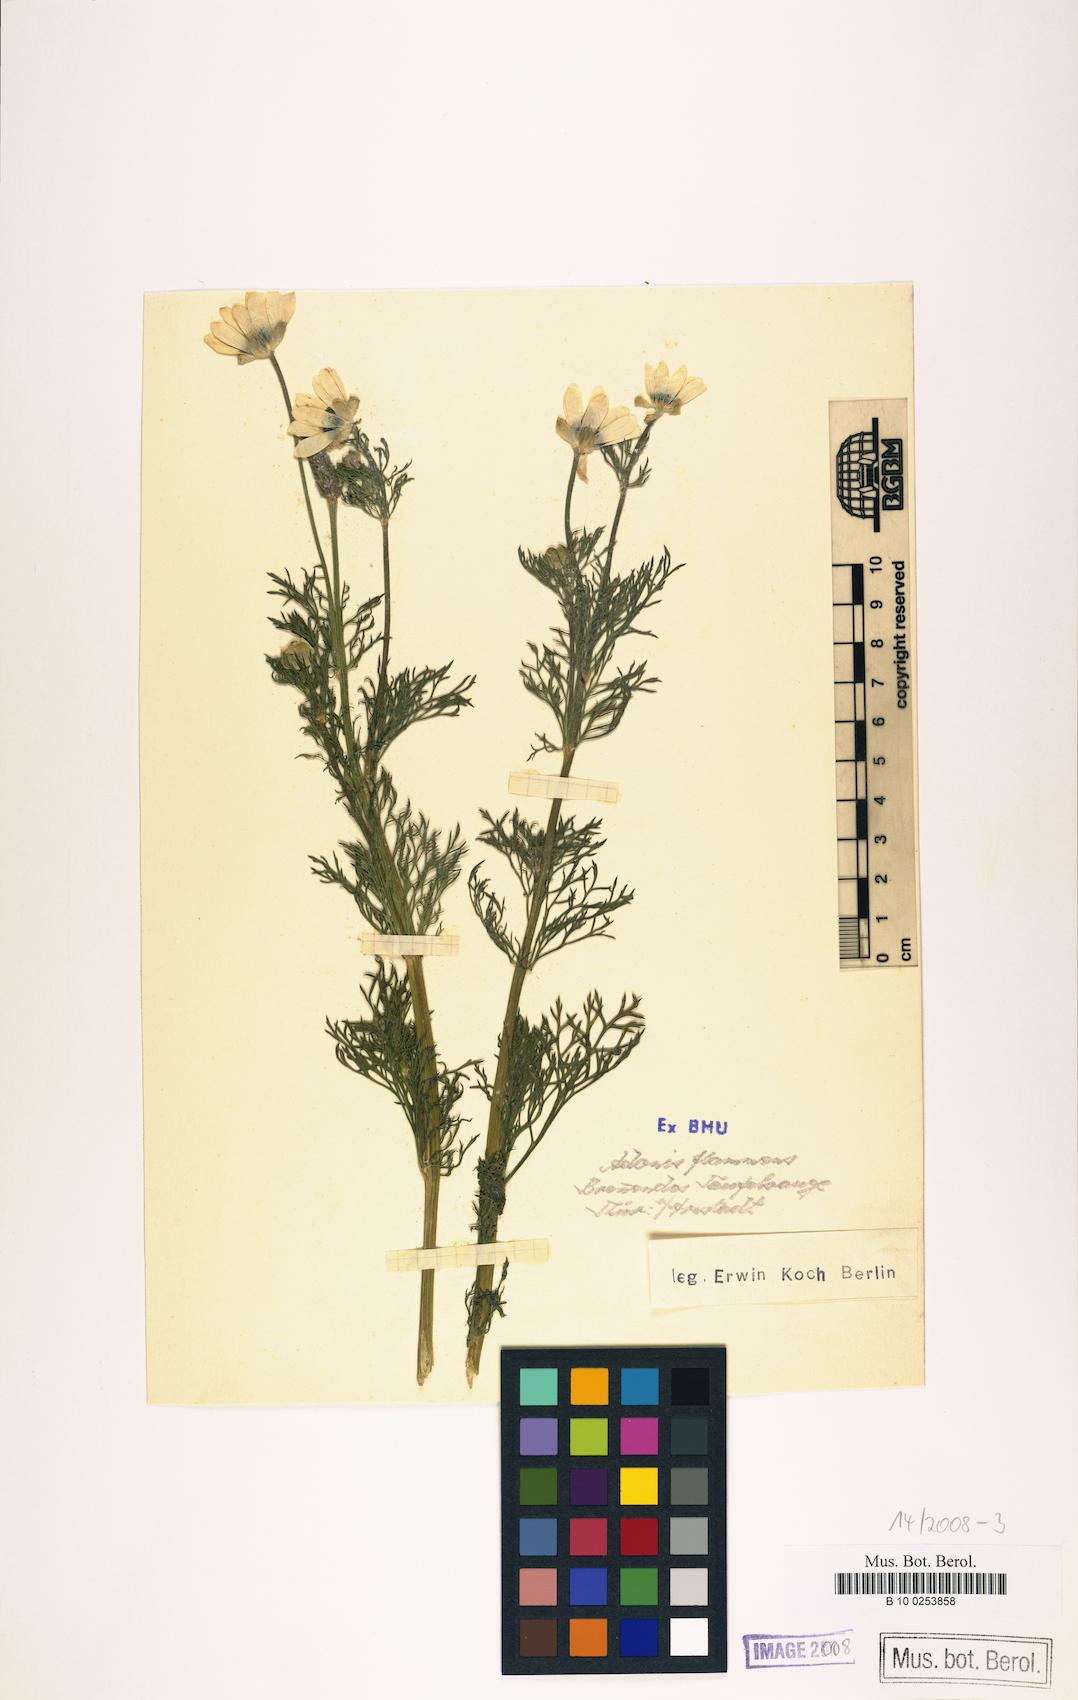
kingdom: Plantae
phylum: Tracheophyta
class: Magnoliopsida
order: Ranunculales
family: Ranunculaceae
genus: Adonis
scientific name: Adonis flammea
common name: Large pheasant's-eye
